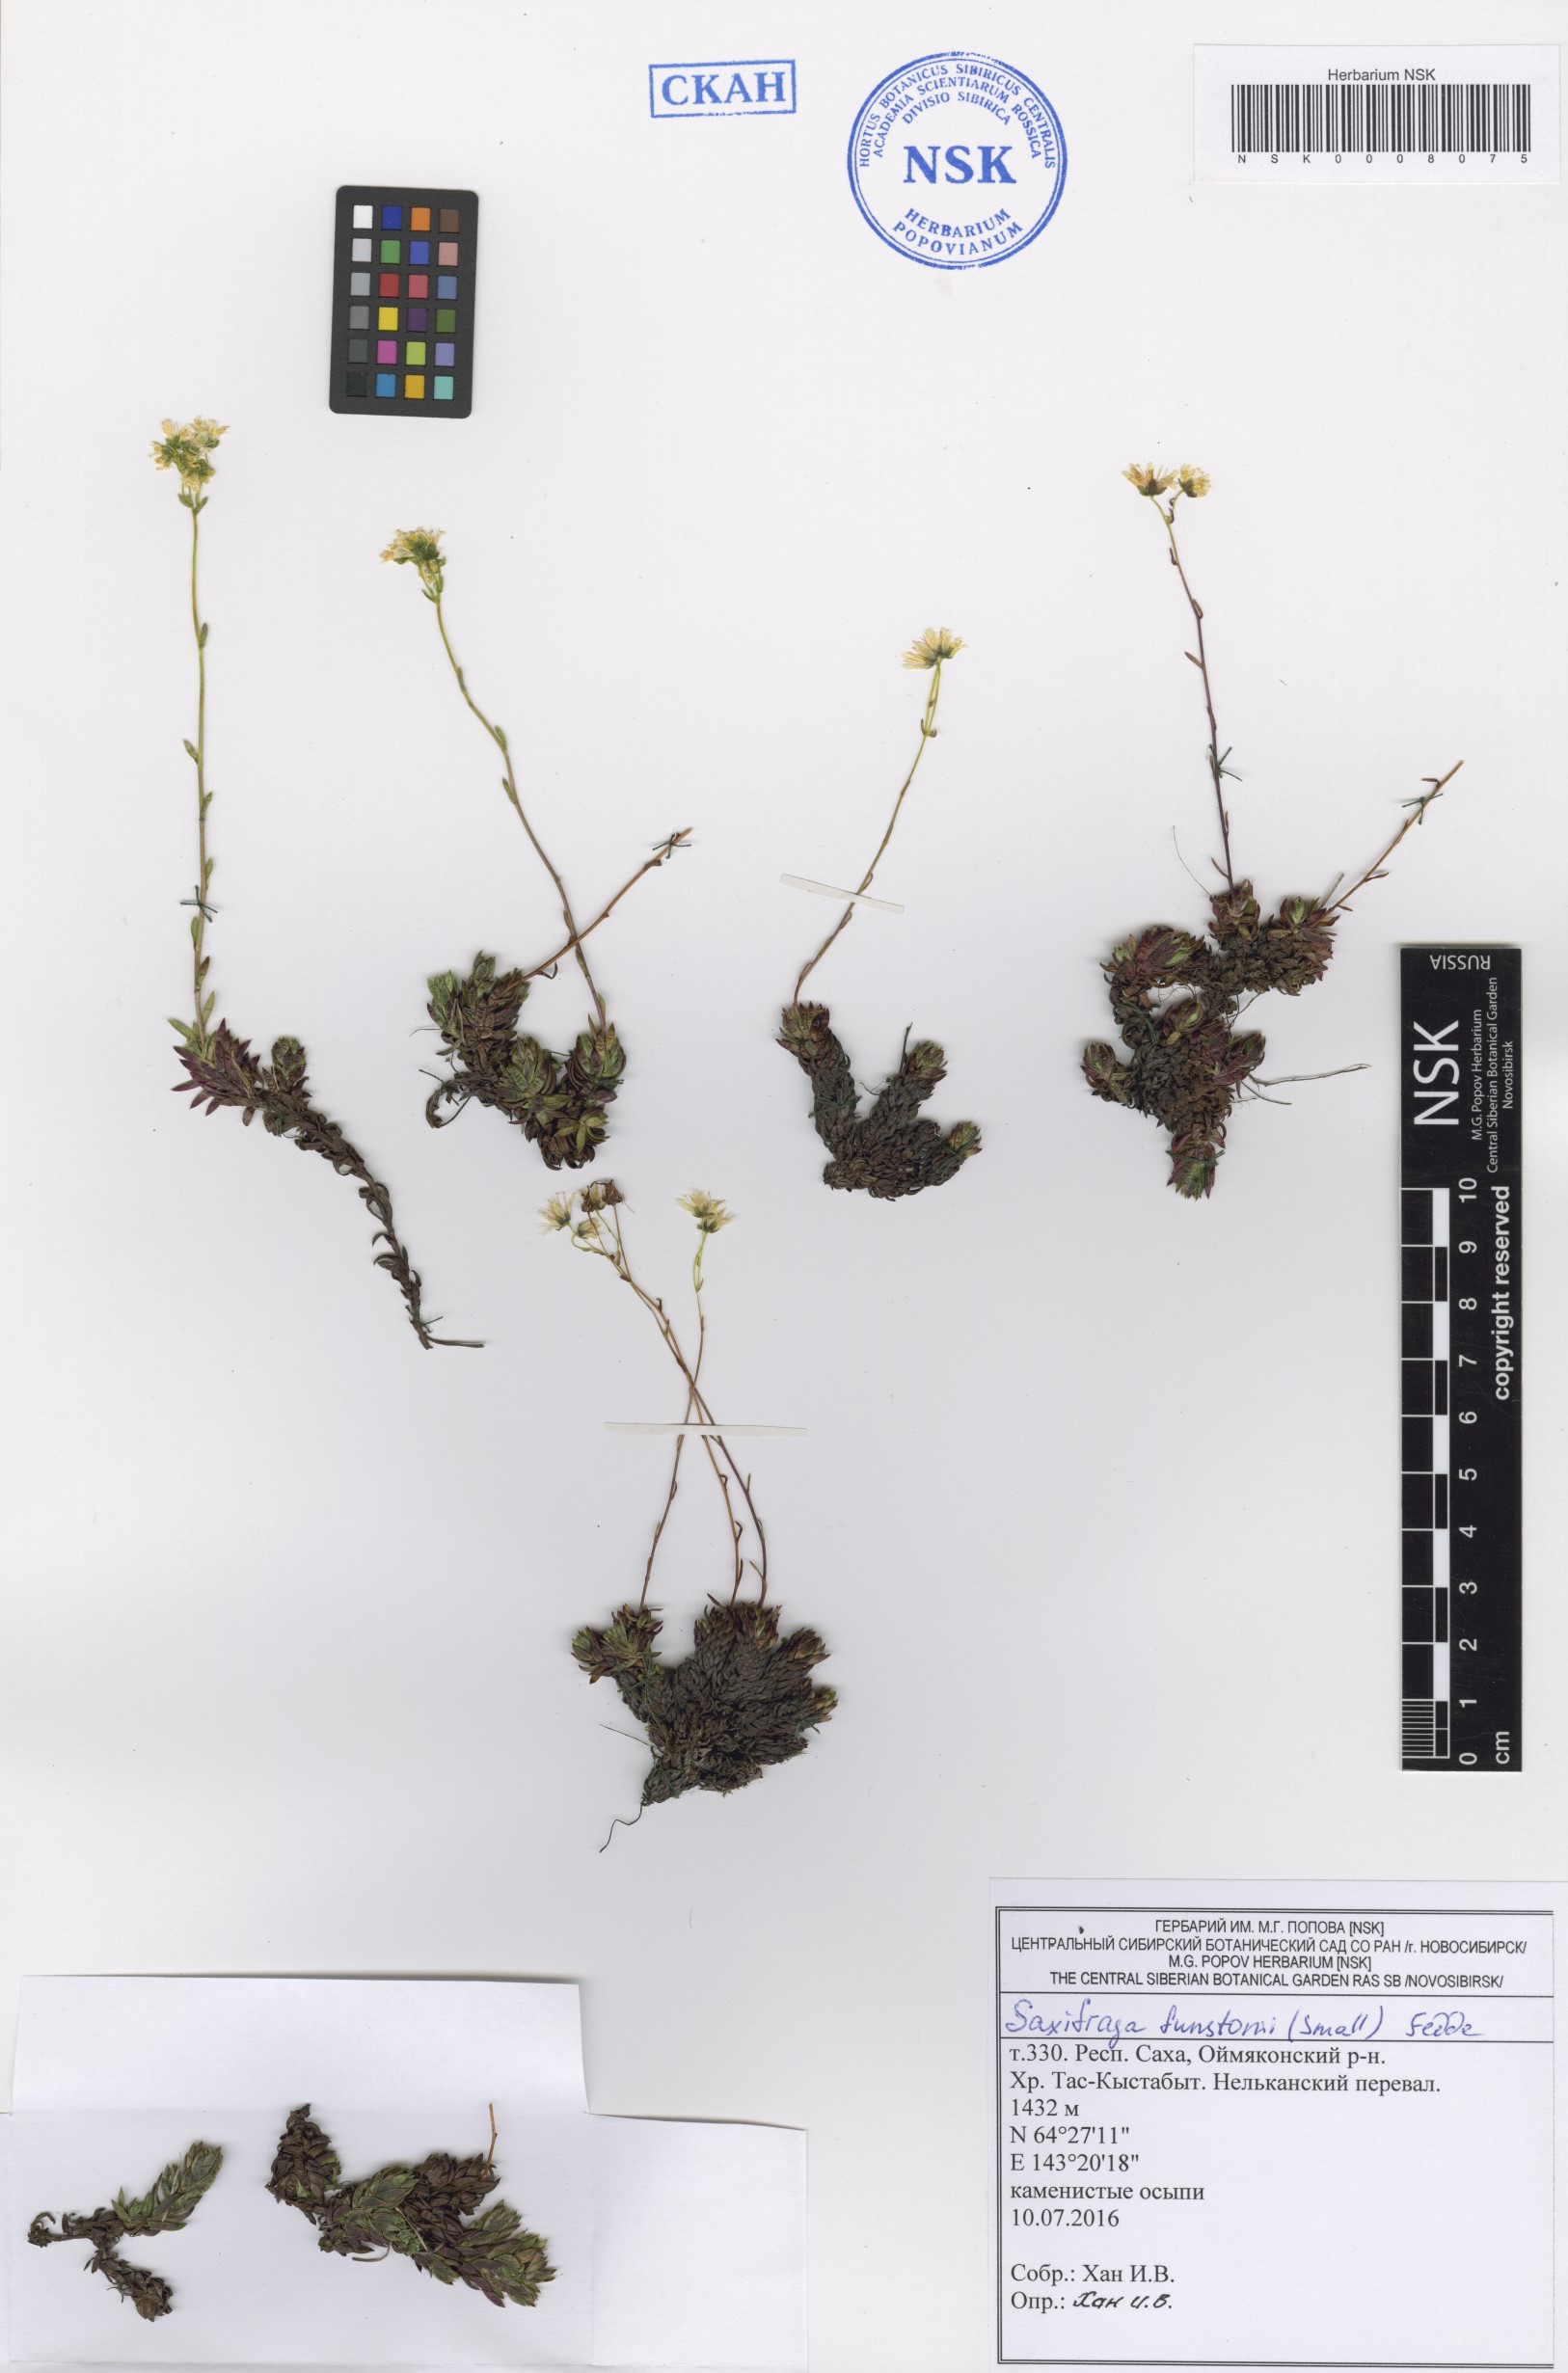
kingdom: Plantae
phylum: Tracheophyta
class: Magnoliopsida
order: Saxifragales
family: Saxifragaceae
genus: Saxifraga
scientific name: Saxifraga bronchialis
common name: Matted saxifrage
